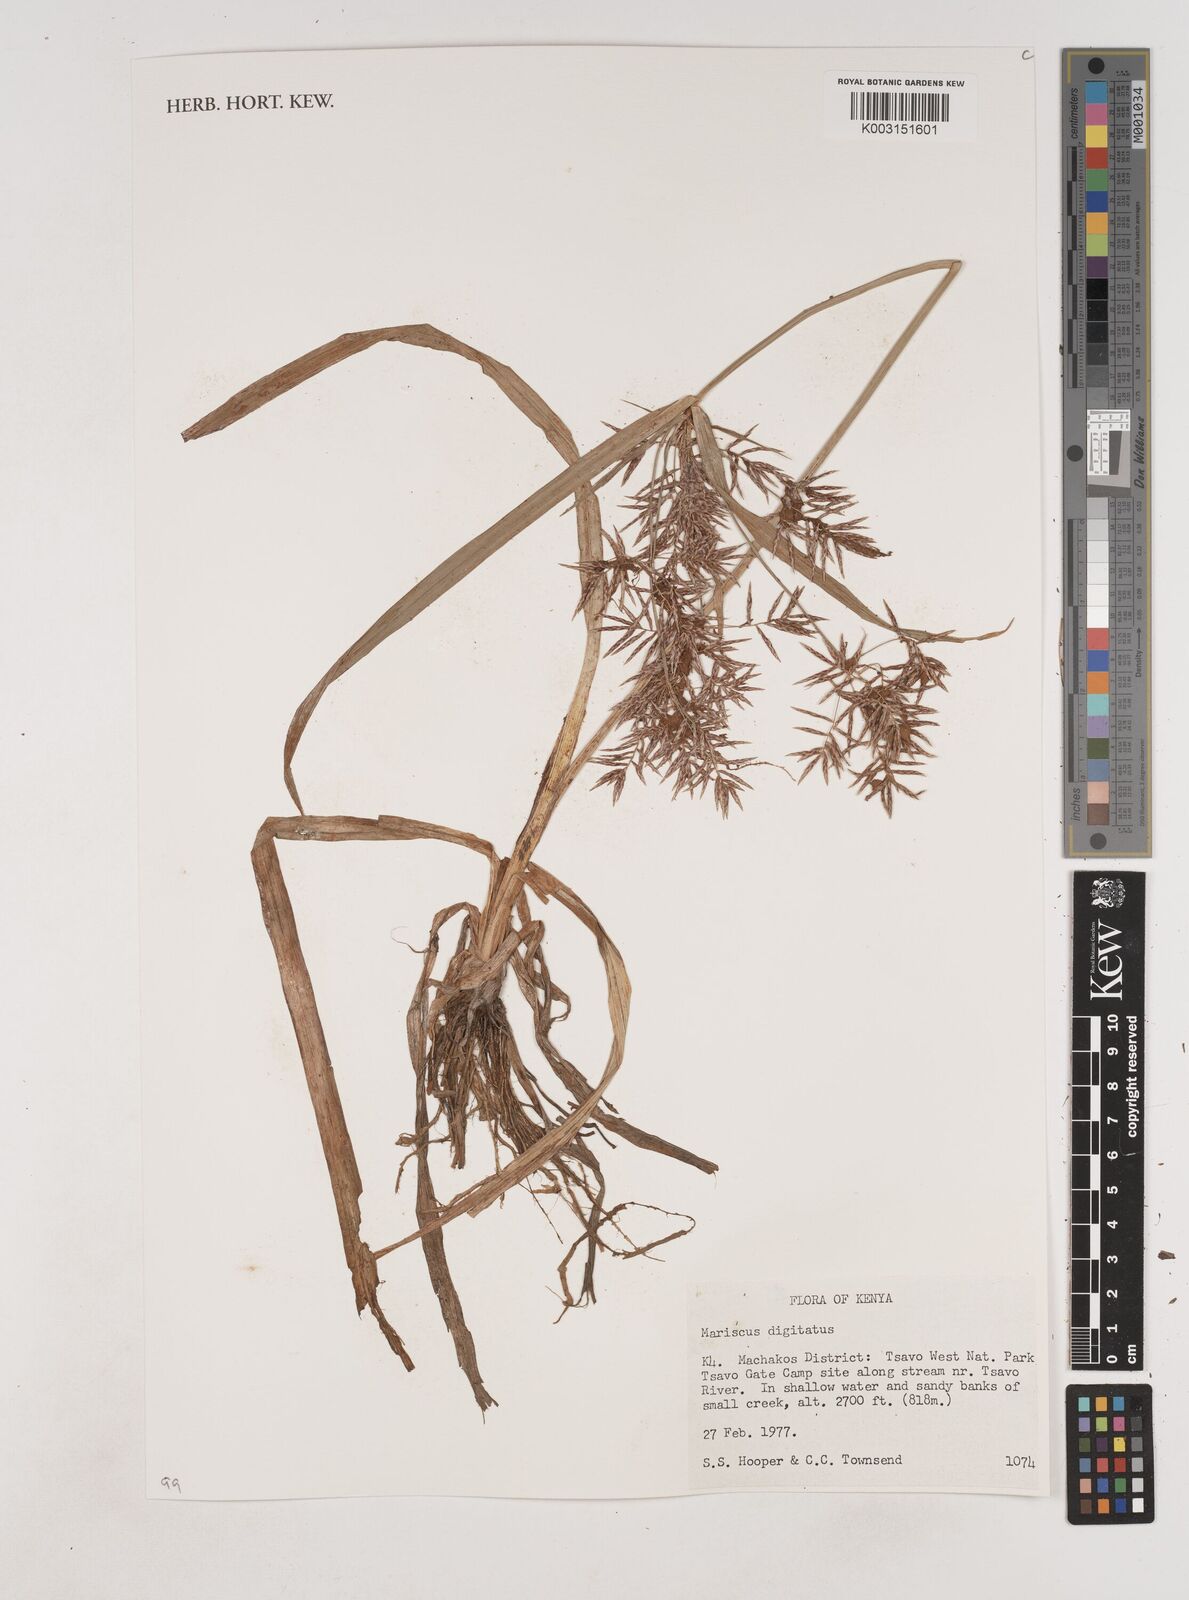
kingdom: Plantae
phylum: Tracheophyta
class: Liliopsida
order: Poales
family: Cyperaceae
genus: Cyperus
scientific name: Cyperus digitatus
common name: Finger flatsedge
